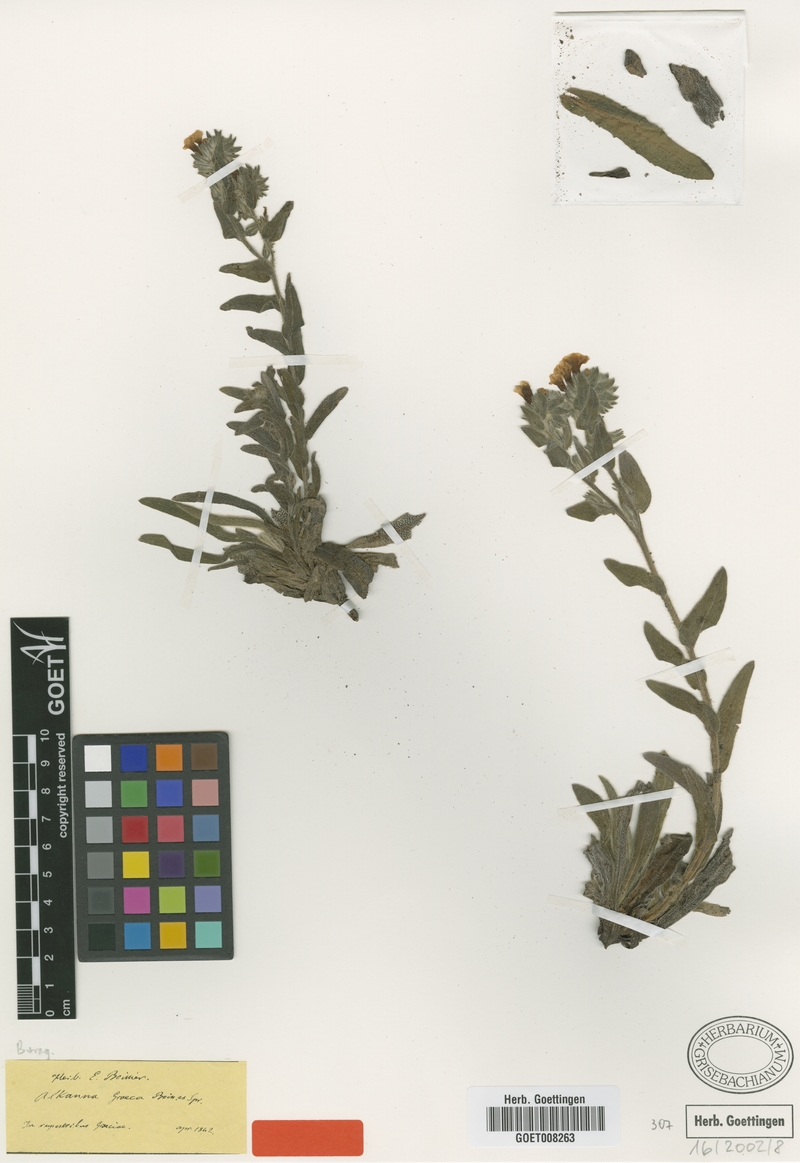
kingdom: Plantae
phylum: Tracheophyta
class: Magnoliopsida
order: Boraginales
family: Boraginaceae
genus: Alkanna
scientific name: Alkanna graeca
